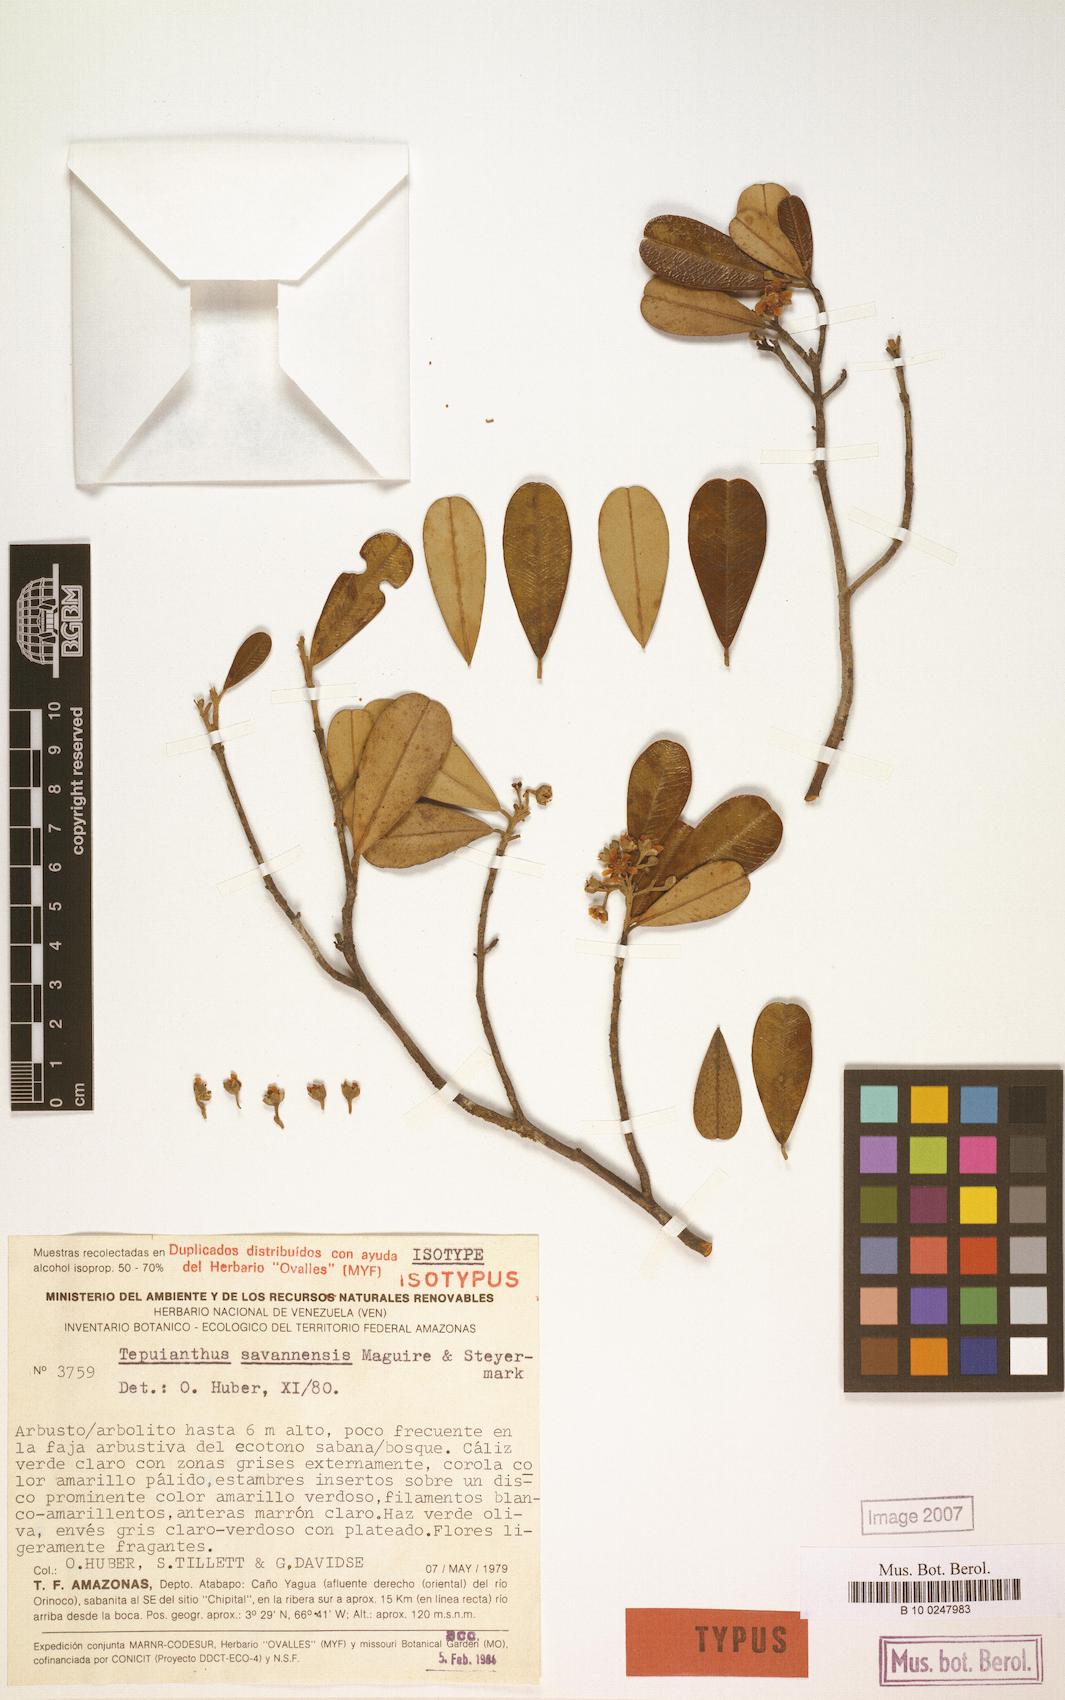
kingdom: Plantae
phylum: Tracheophyta
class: Magnoliopsida
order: Malvales
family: Thymelaeaceae
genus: Tepuianthus
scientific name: Tepuianthus savannensis
